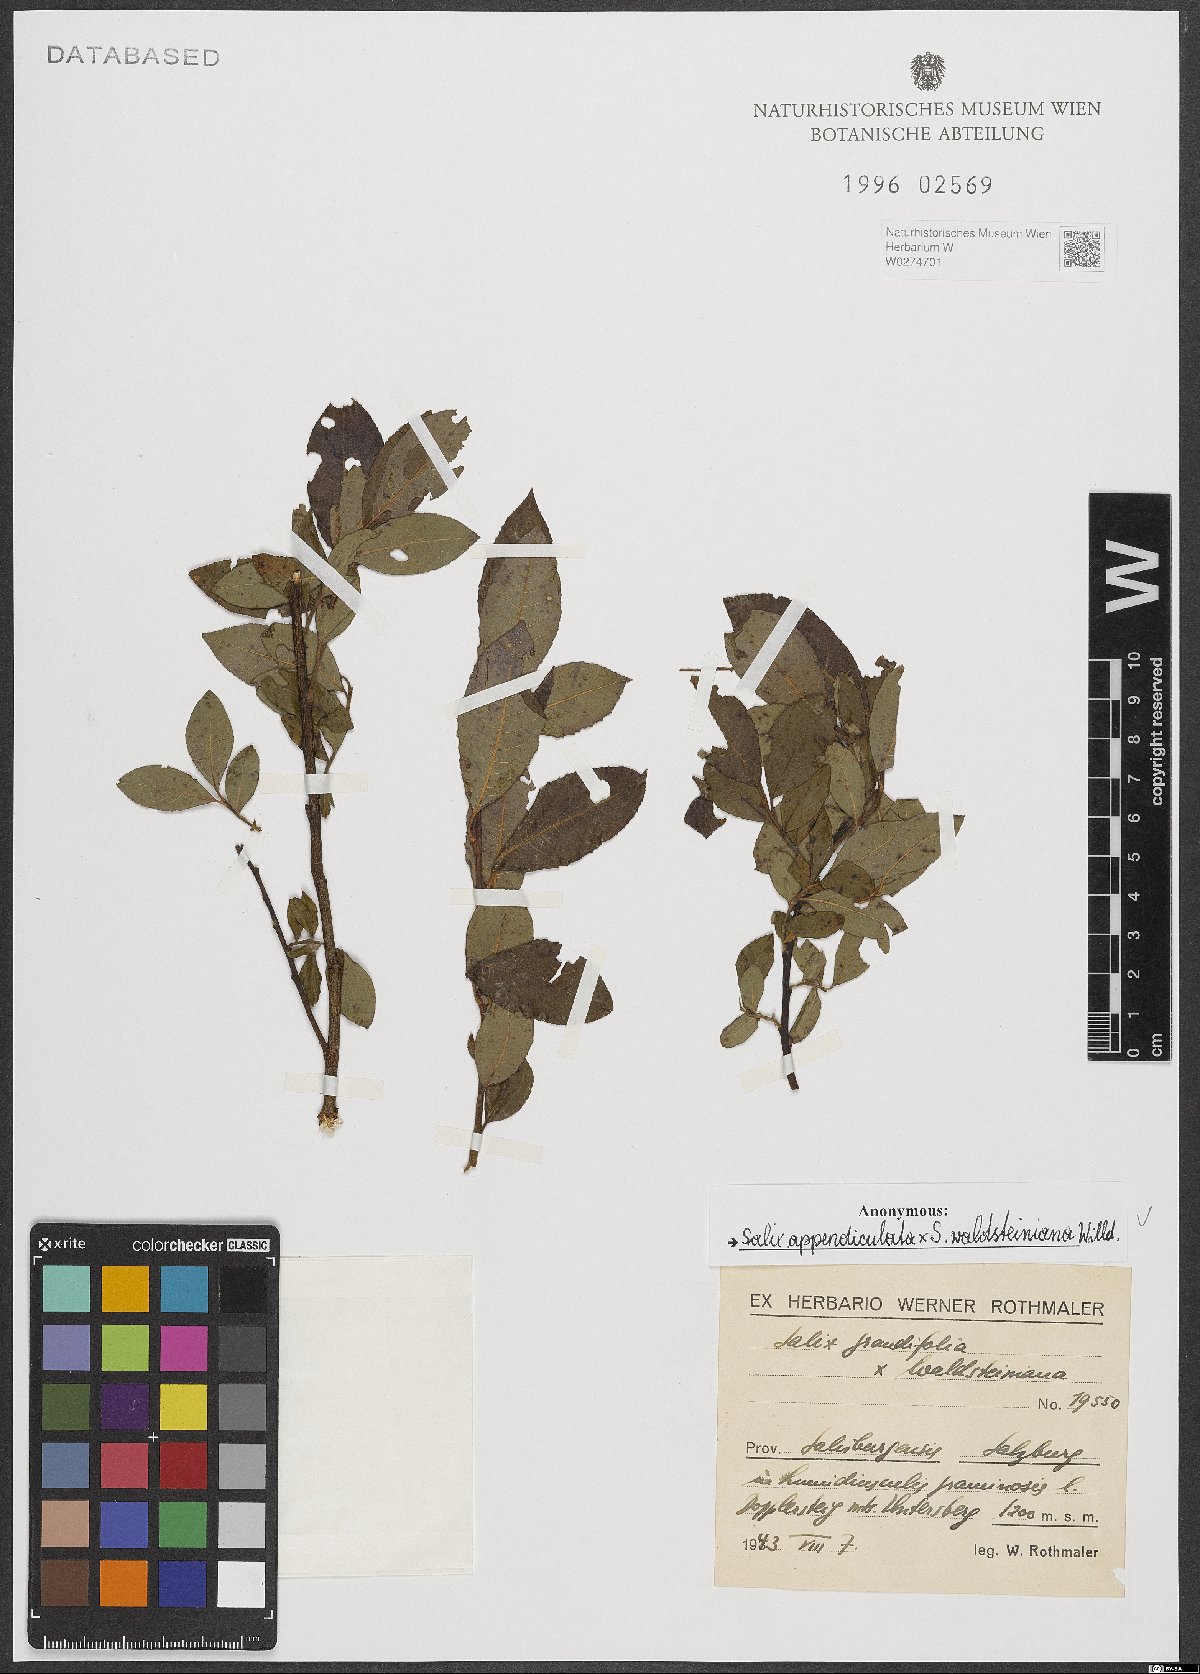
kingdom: Plantae
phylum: Tracheophyta
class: Magnoliopsida
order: Malpighiales
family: Salicaceae
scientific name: Salicaceae
